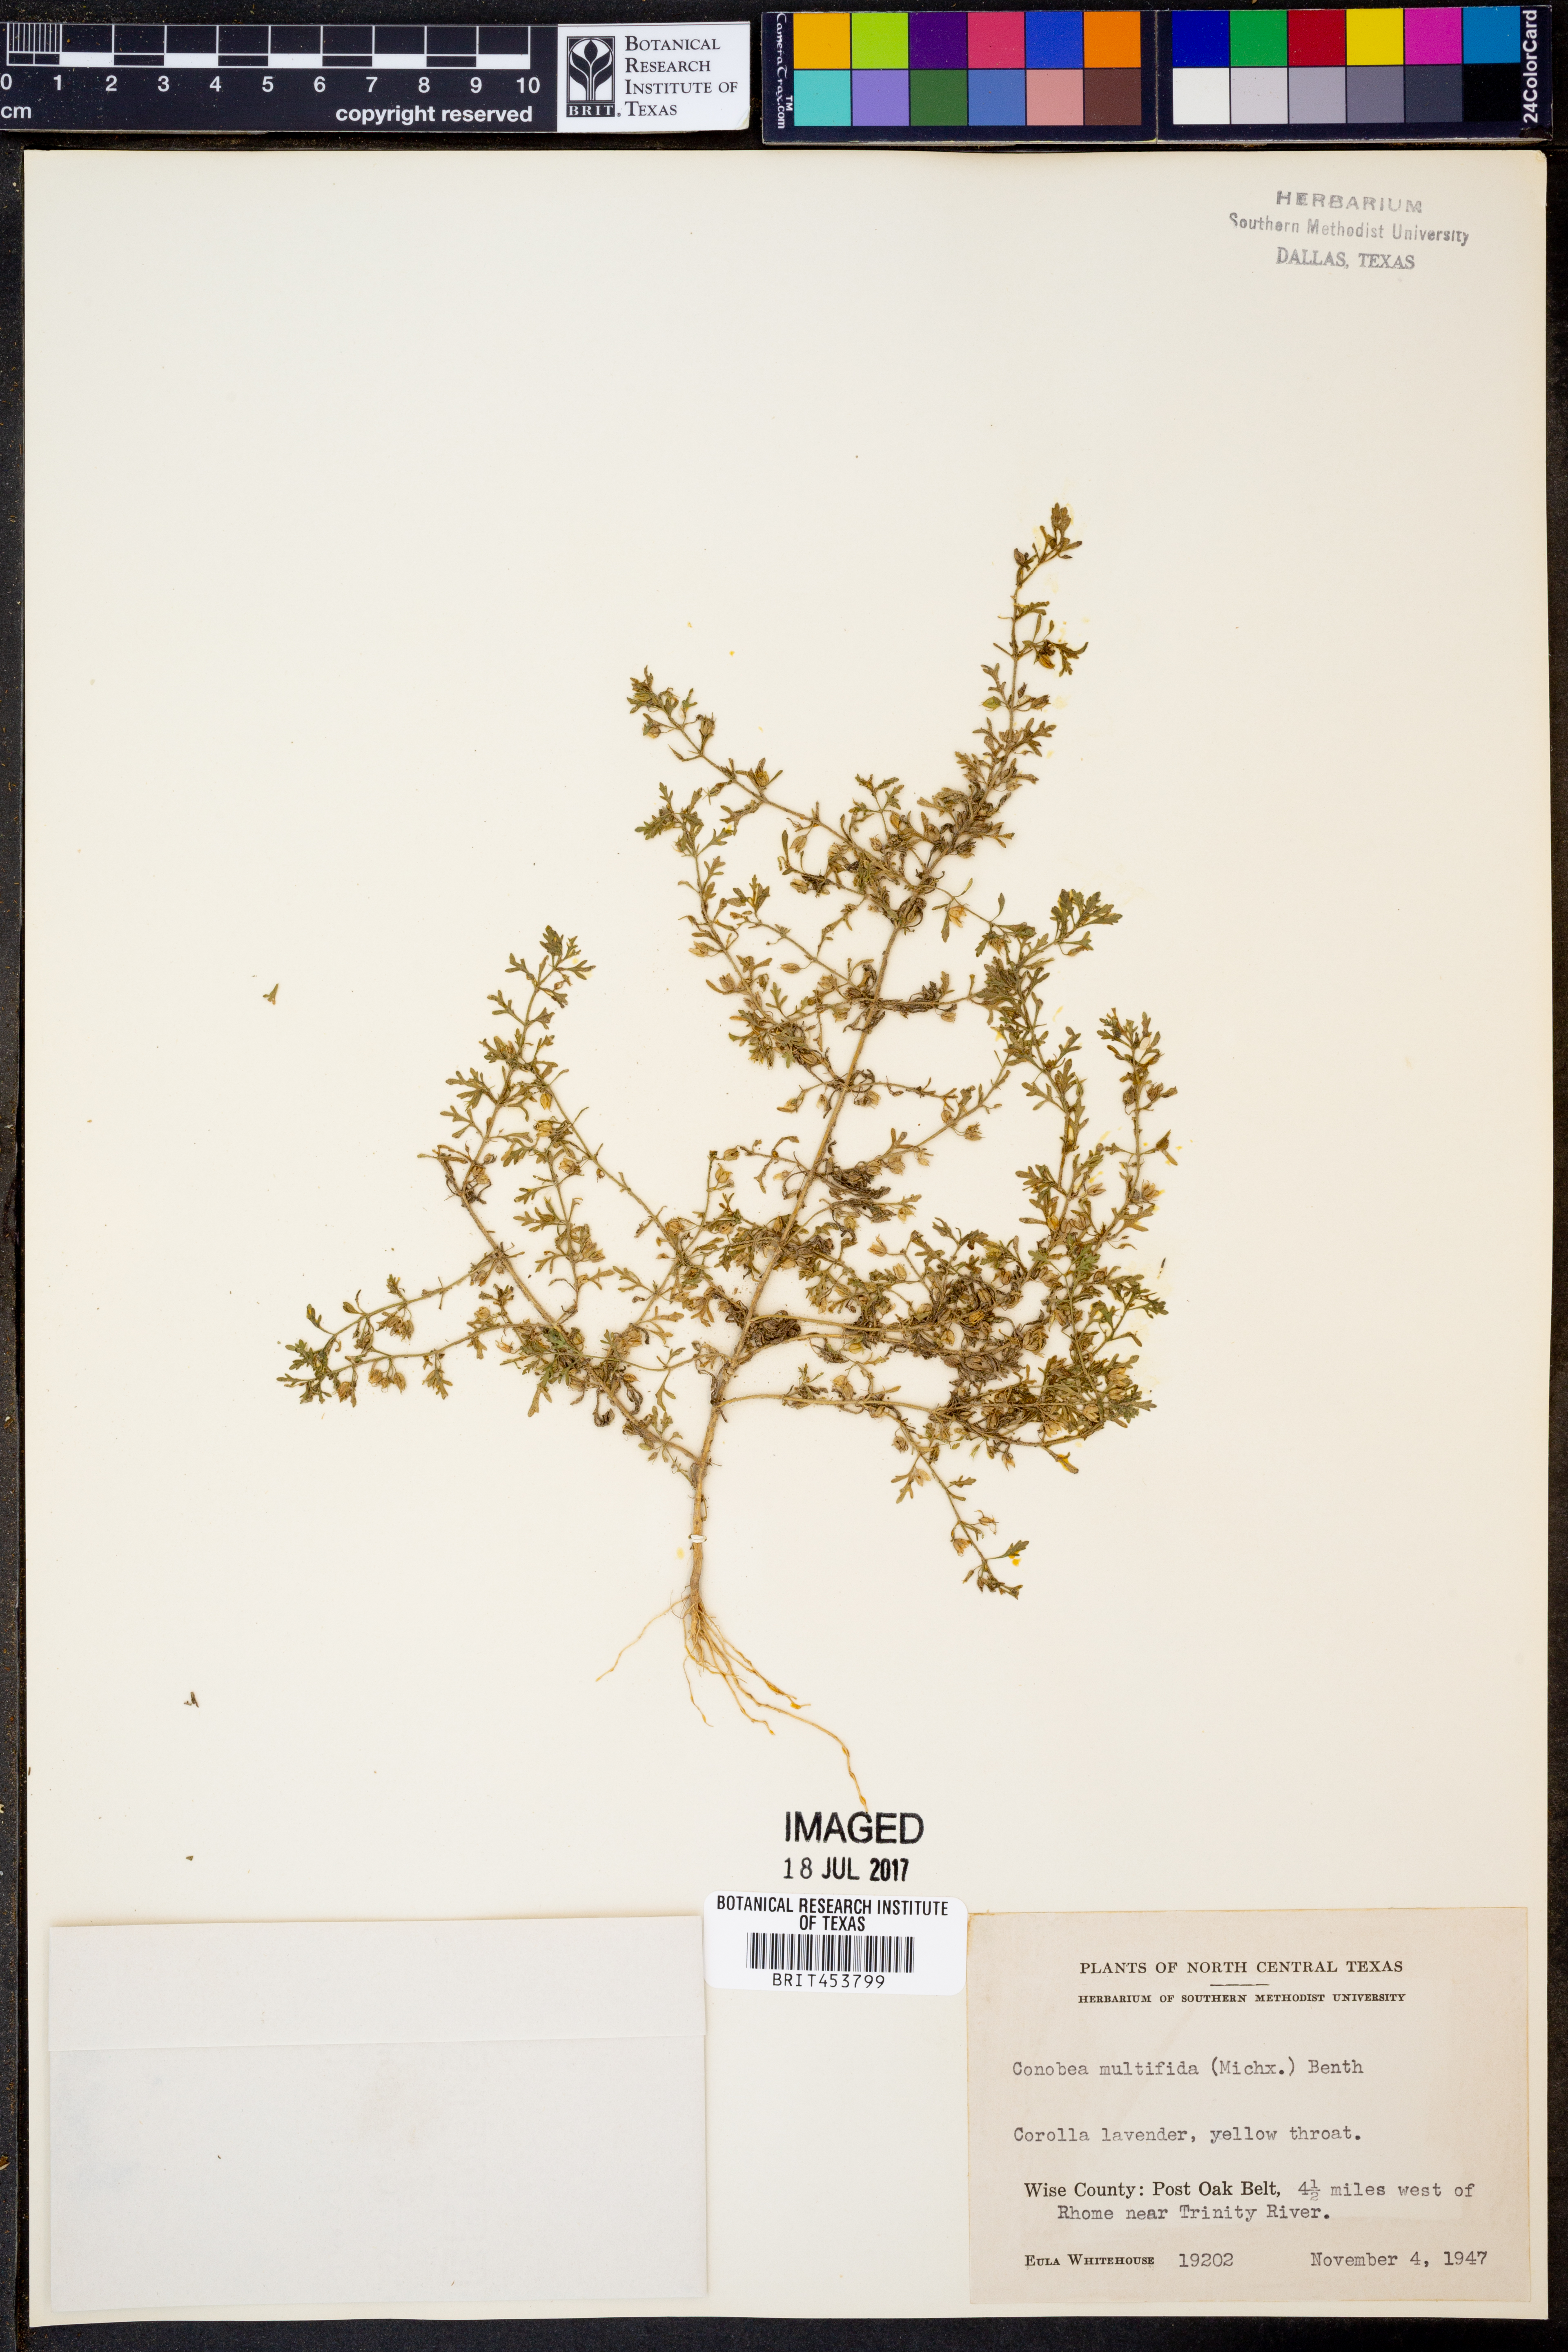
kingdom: Plantae
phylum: Tracheophyta
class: Magnoliopsida
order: Lamiales
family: Plantaginaceae
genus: Leucospora
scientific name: Leucospora multifida
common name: Narrow-leaf paleseed
